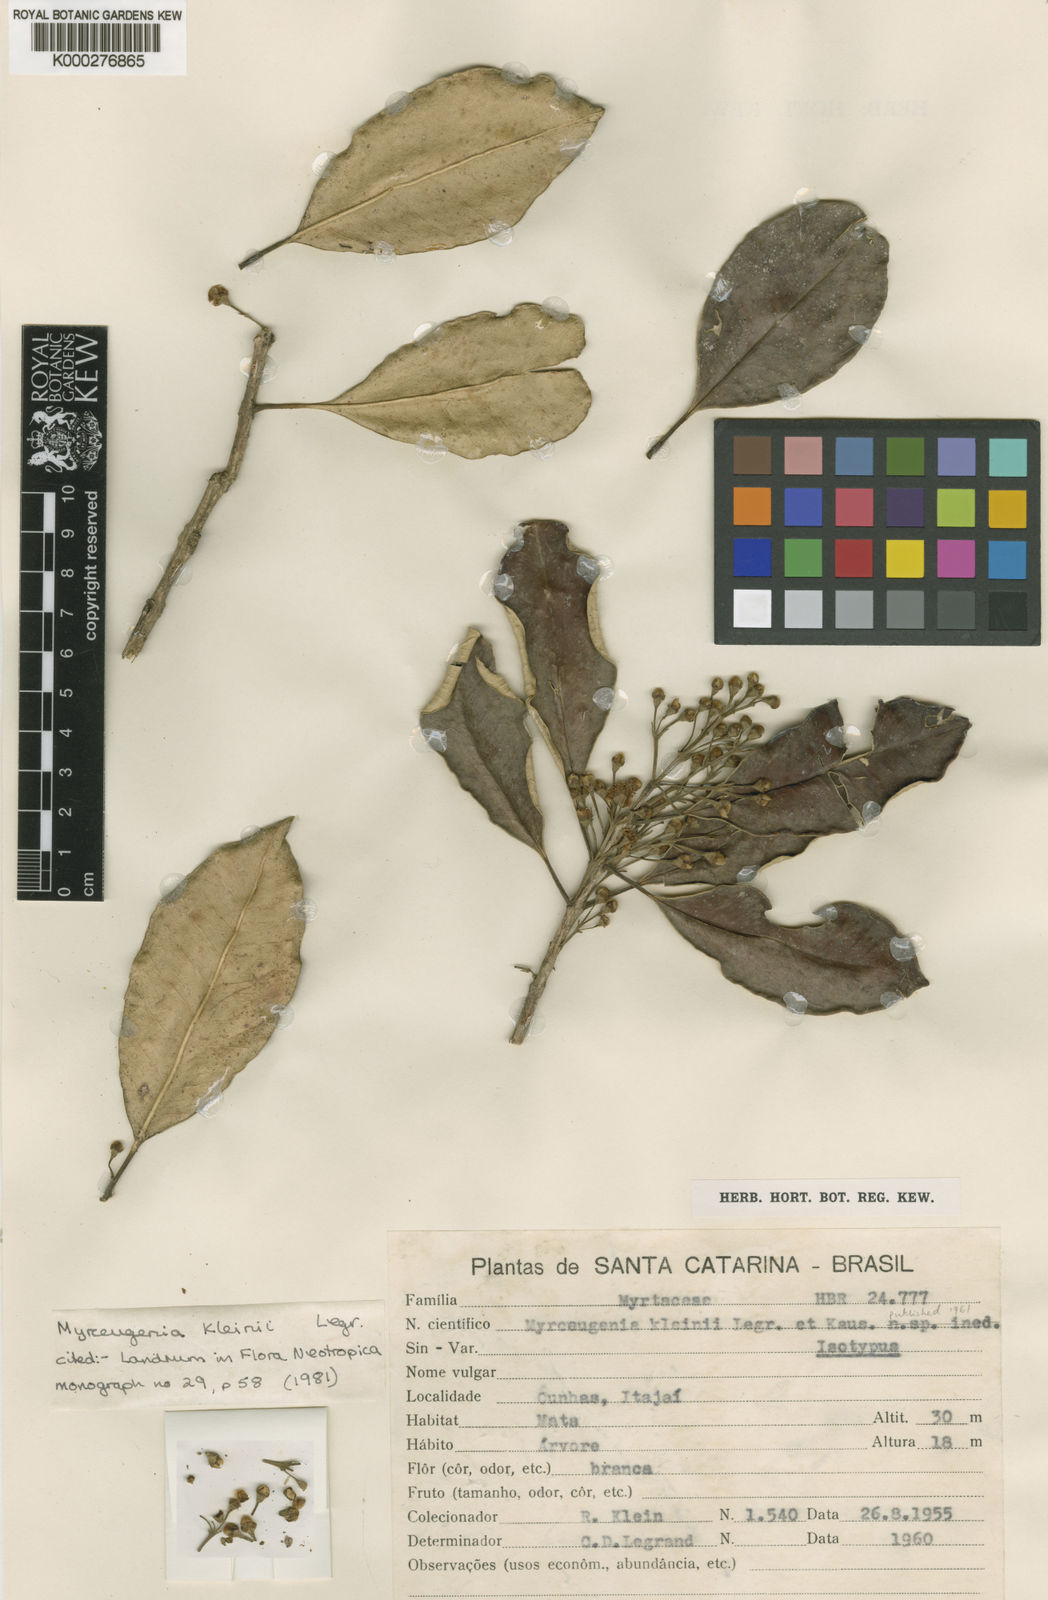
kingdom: Plantae
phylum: Tracheophyta
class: Magnoliopsida
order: Myrtales
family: Myrtaceae
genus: Myrceugenia
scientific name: Myrceugenia kleinii
